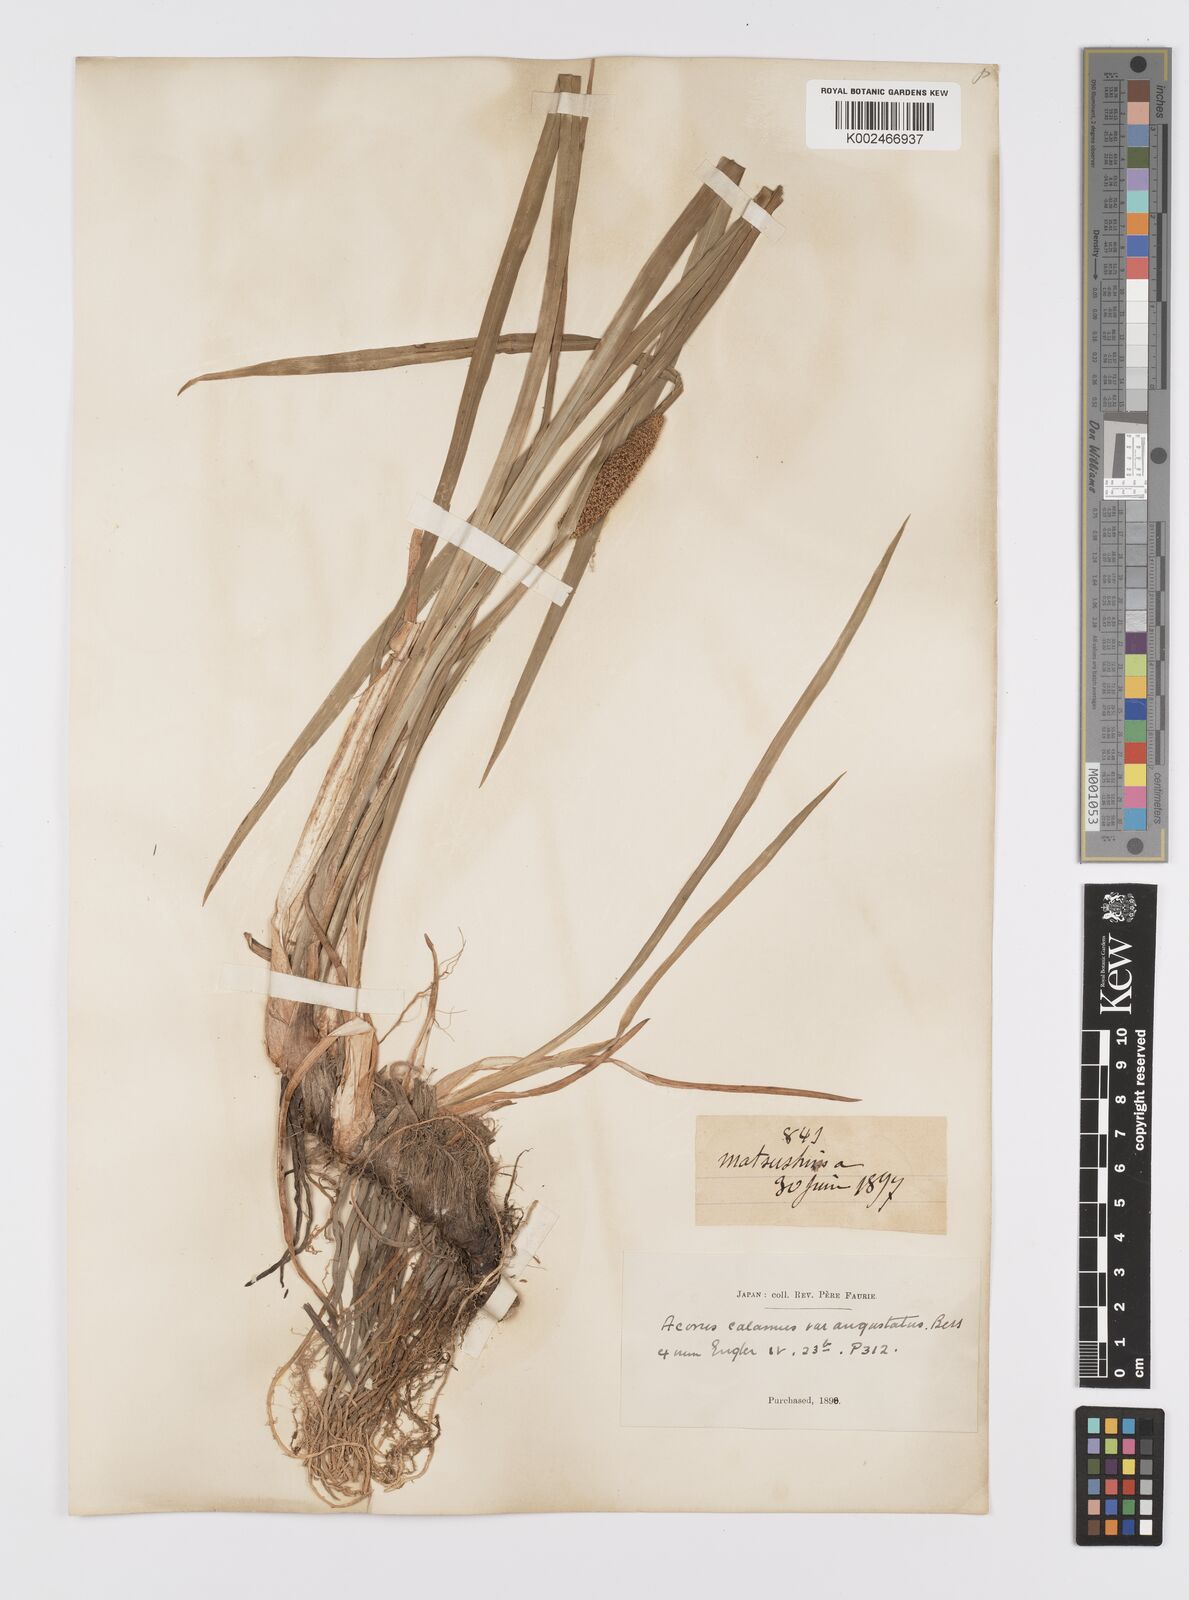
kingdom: Plantae
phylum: Tracheophyta
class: Liliopsida
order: Acorales
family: Acoraceae
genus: Acorus
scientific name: Acorus calamus
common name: Sweet-flag
